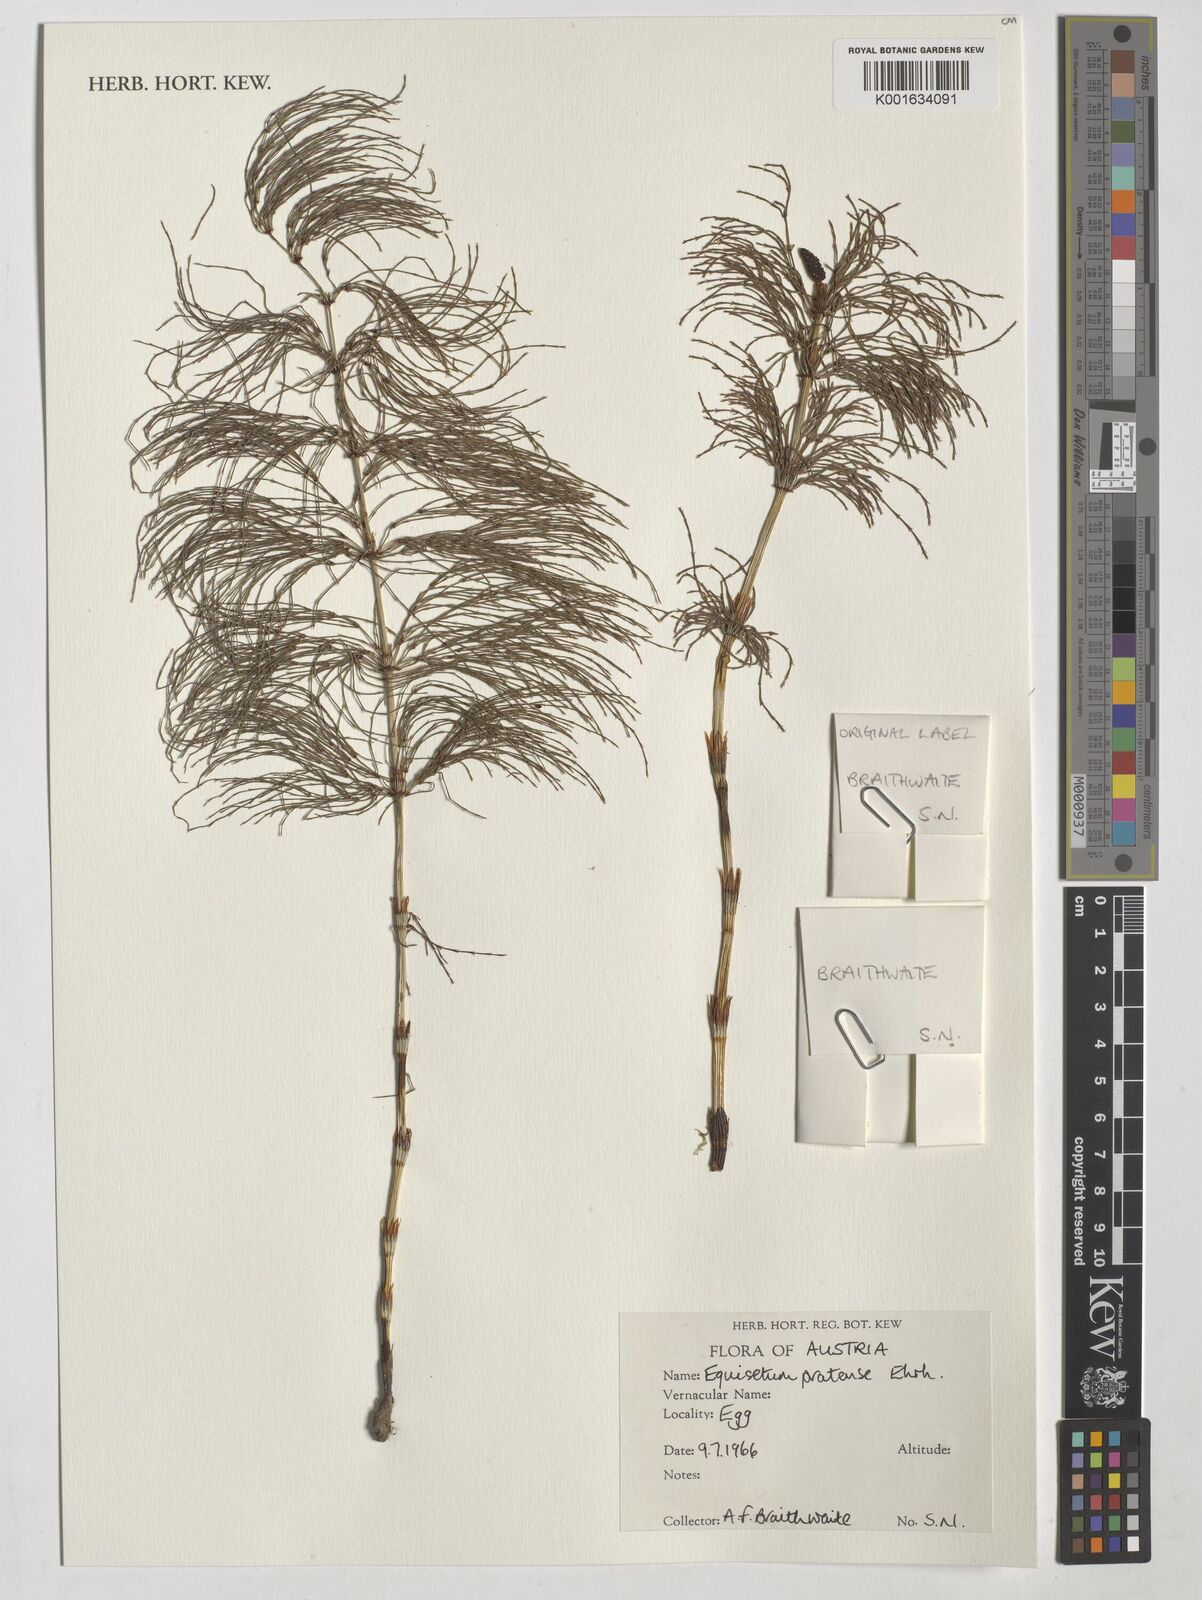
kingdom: Plantae
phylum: Tracheophyta
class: Polypodiopsida
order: Equisetales
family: Equisetaceae
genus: Equisetum
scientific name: Equisetum pratense
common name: Meadow horsetail
